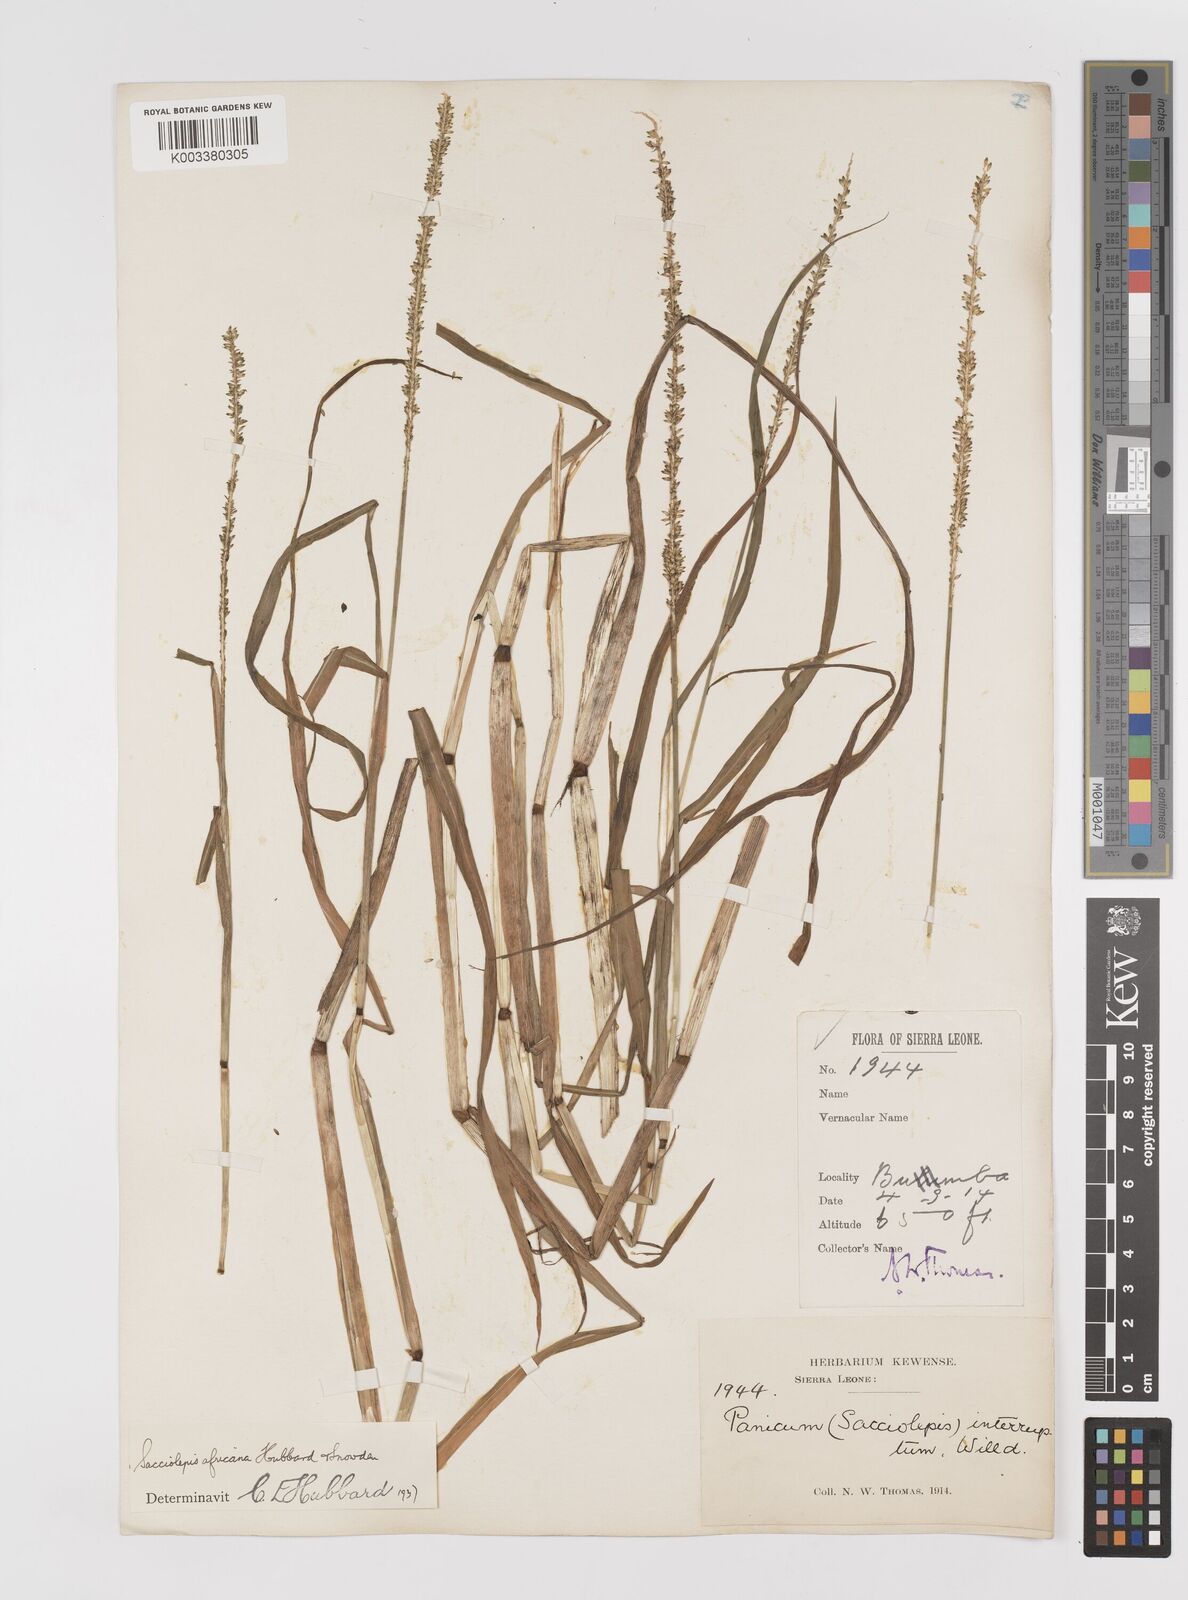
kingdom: Plantae
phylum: Tracheophyta
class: Liliopsida
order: Poales
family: Poaceae
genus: Sacciolepis
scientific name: Sacciolepis africana
